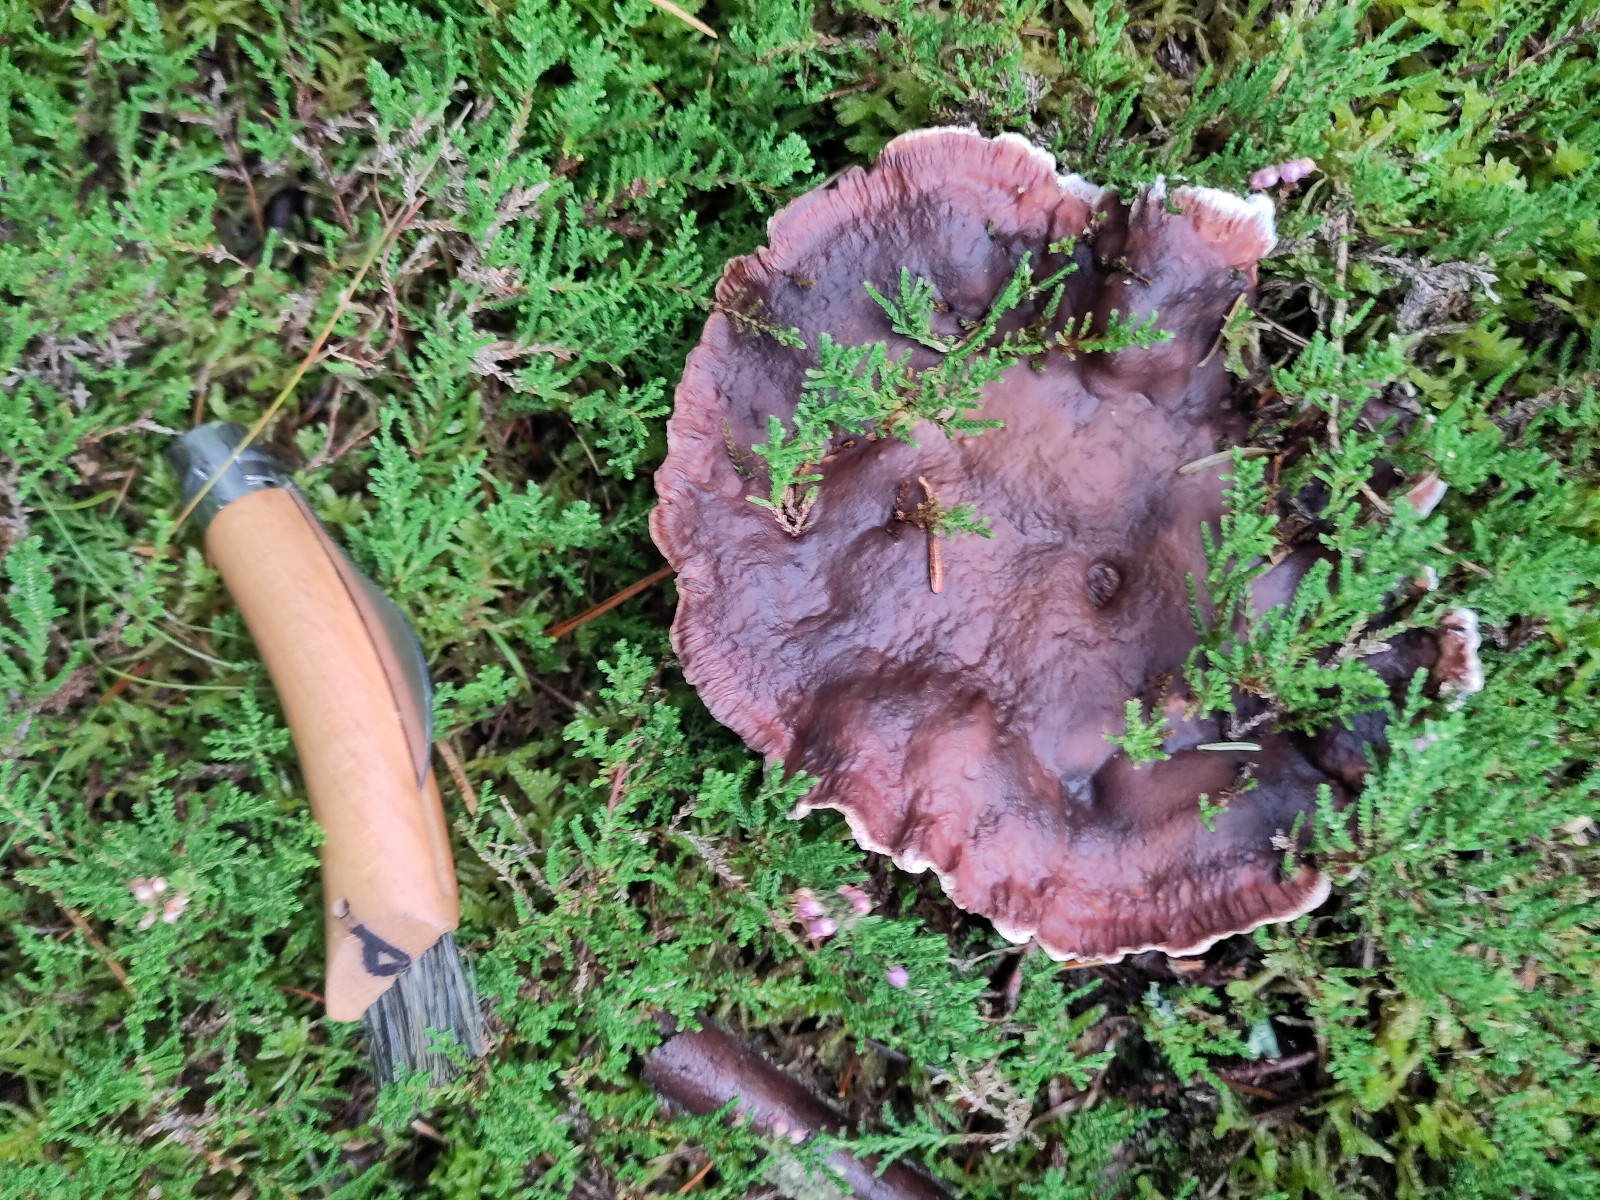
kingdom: Fungi
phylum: Basidiomycota
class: Agaricomycetes
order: Thelephorales
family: Bankeraceae
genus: Hydnellum
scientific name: Hydnellum ferrugineum
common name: rust-korkpigsvamp
